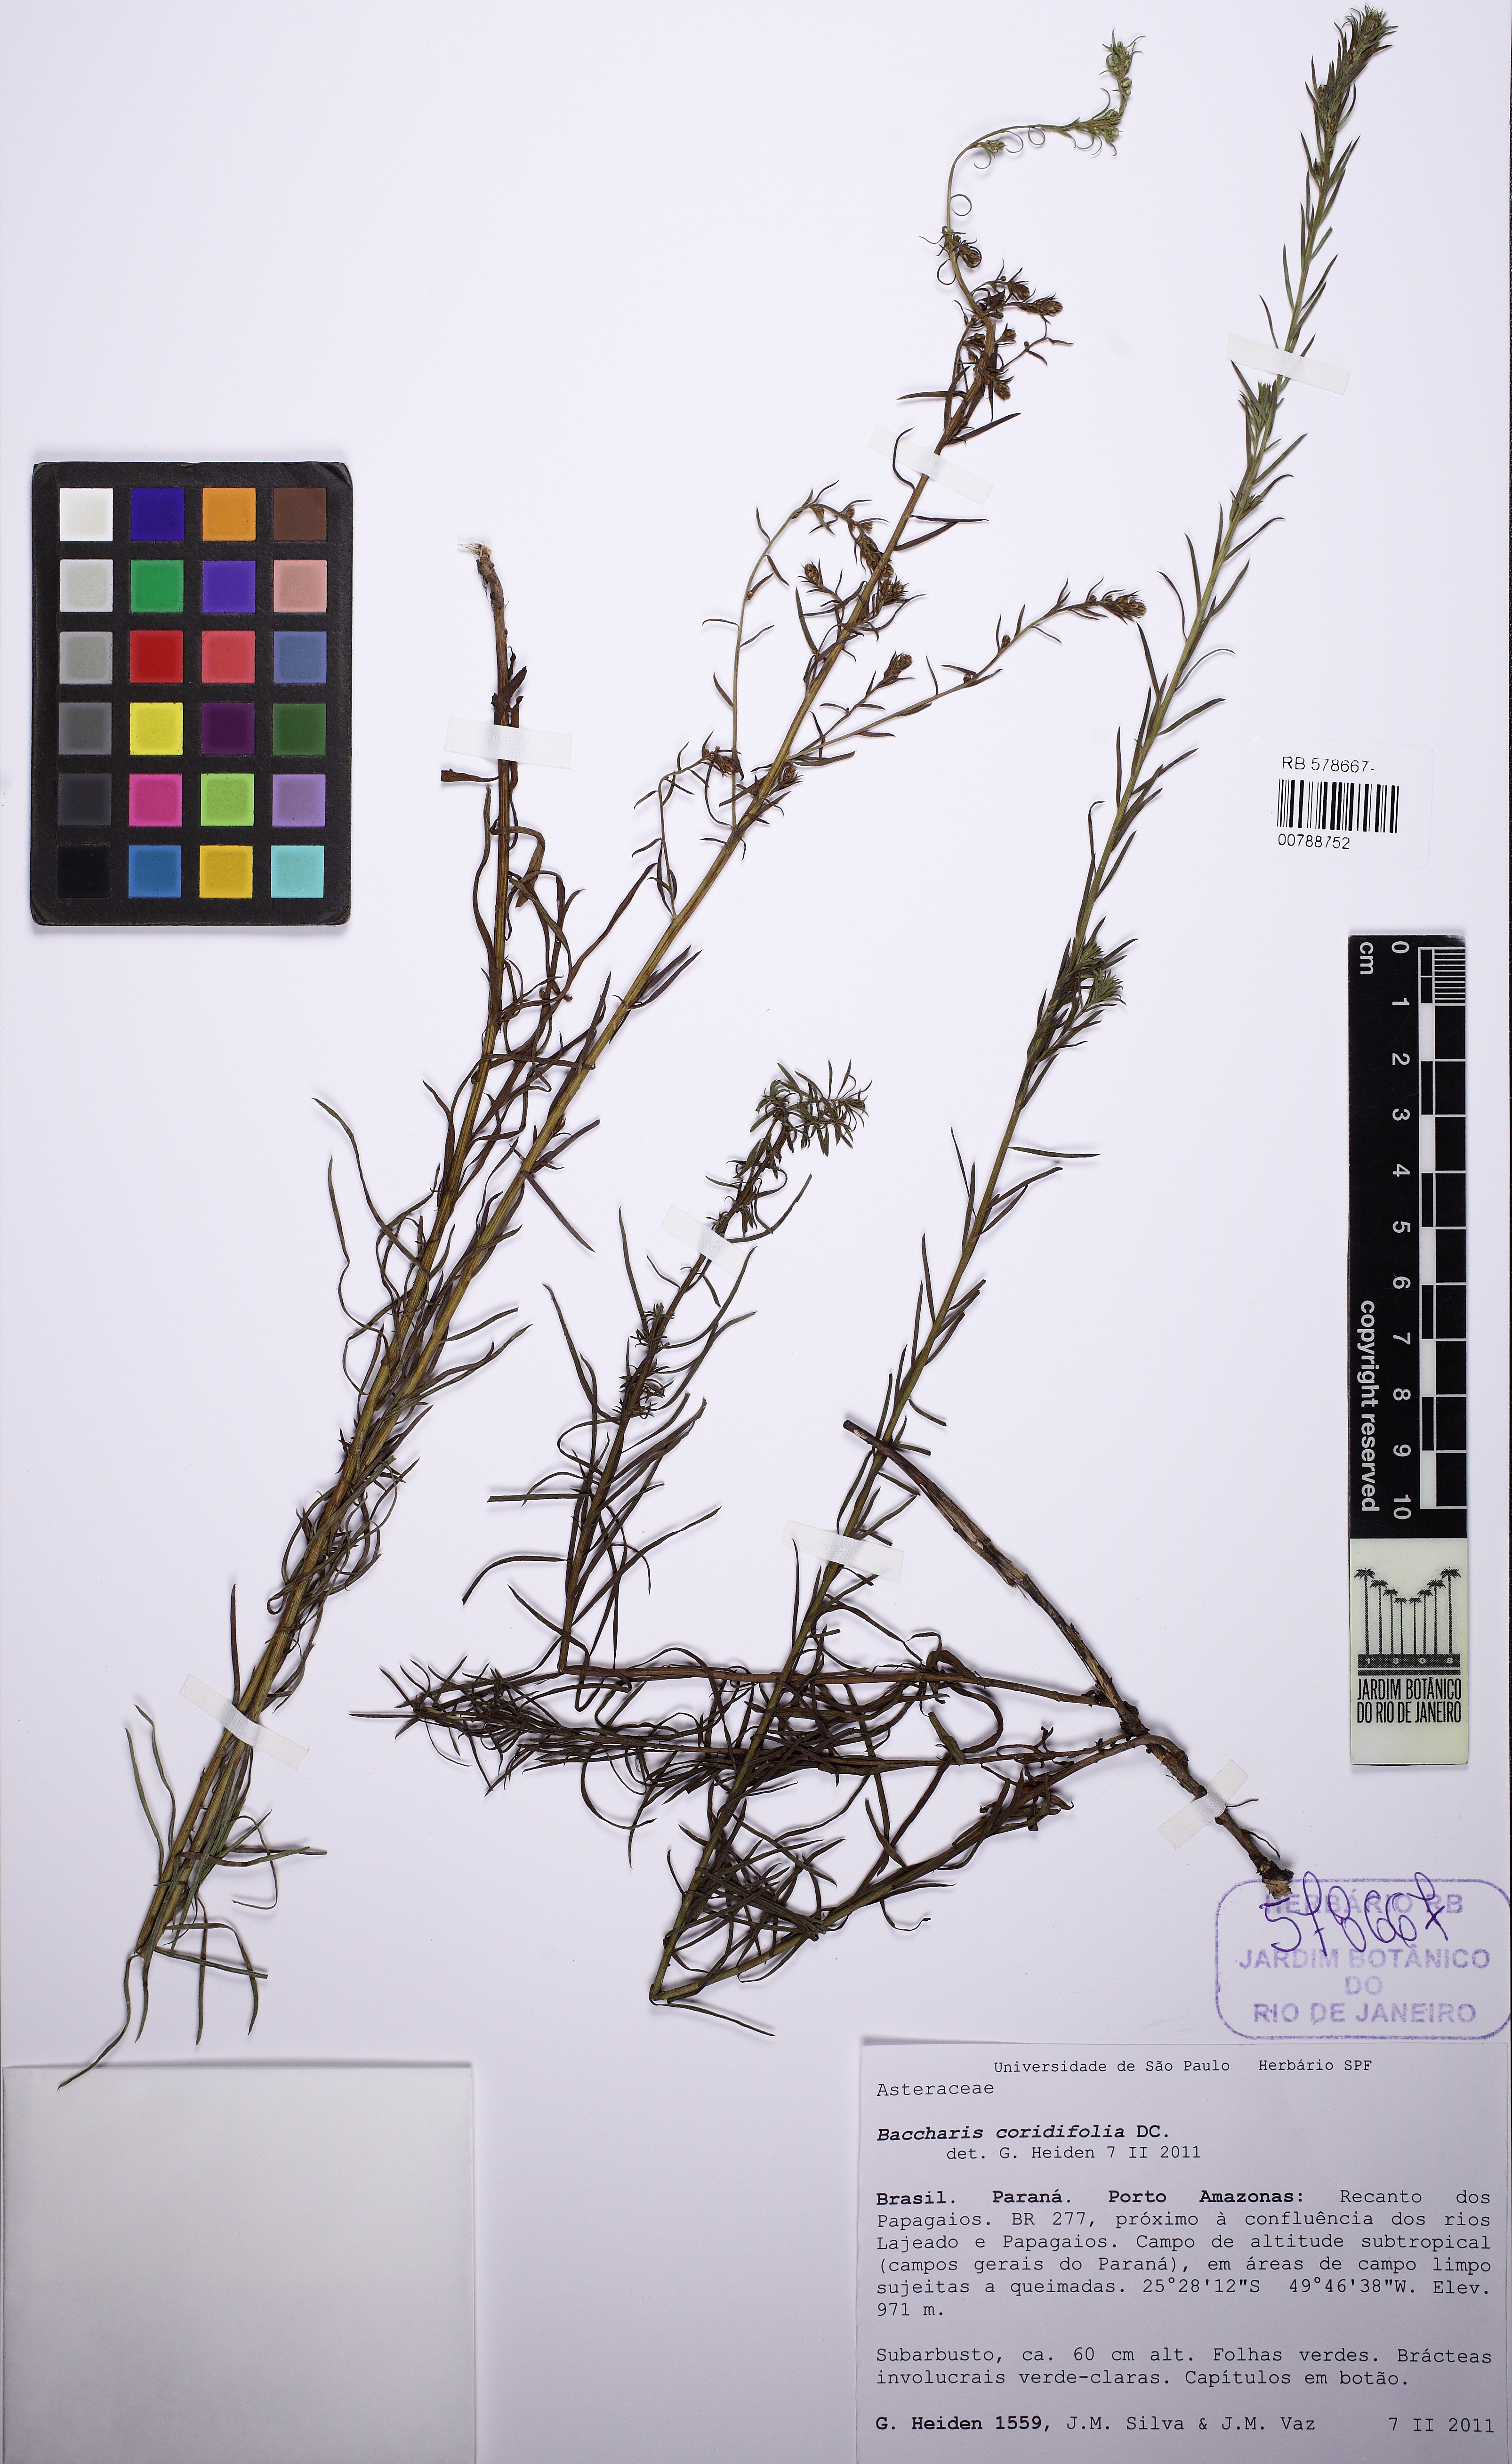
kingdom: Plantae
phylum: Tracheophyta
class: Magnoliopsida
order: Asterales
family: Asteraceae
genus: Baccharis
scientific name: Baccharis coridifolia
